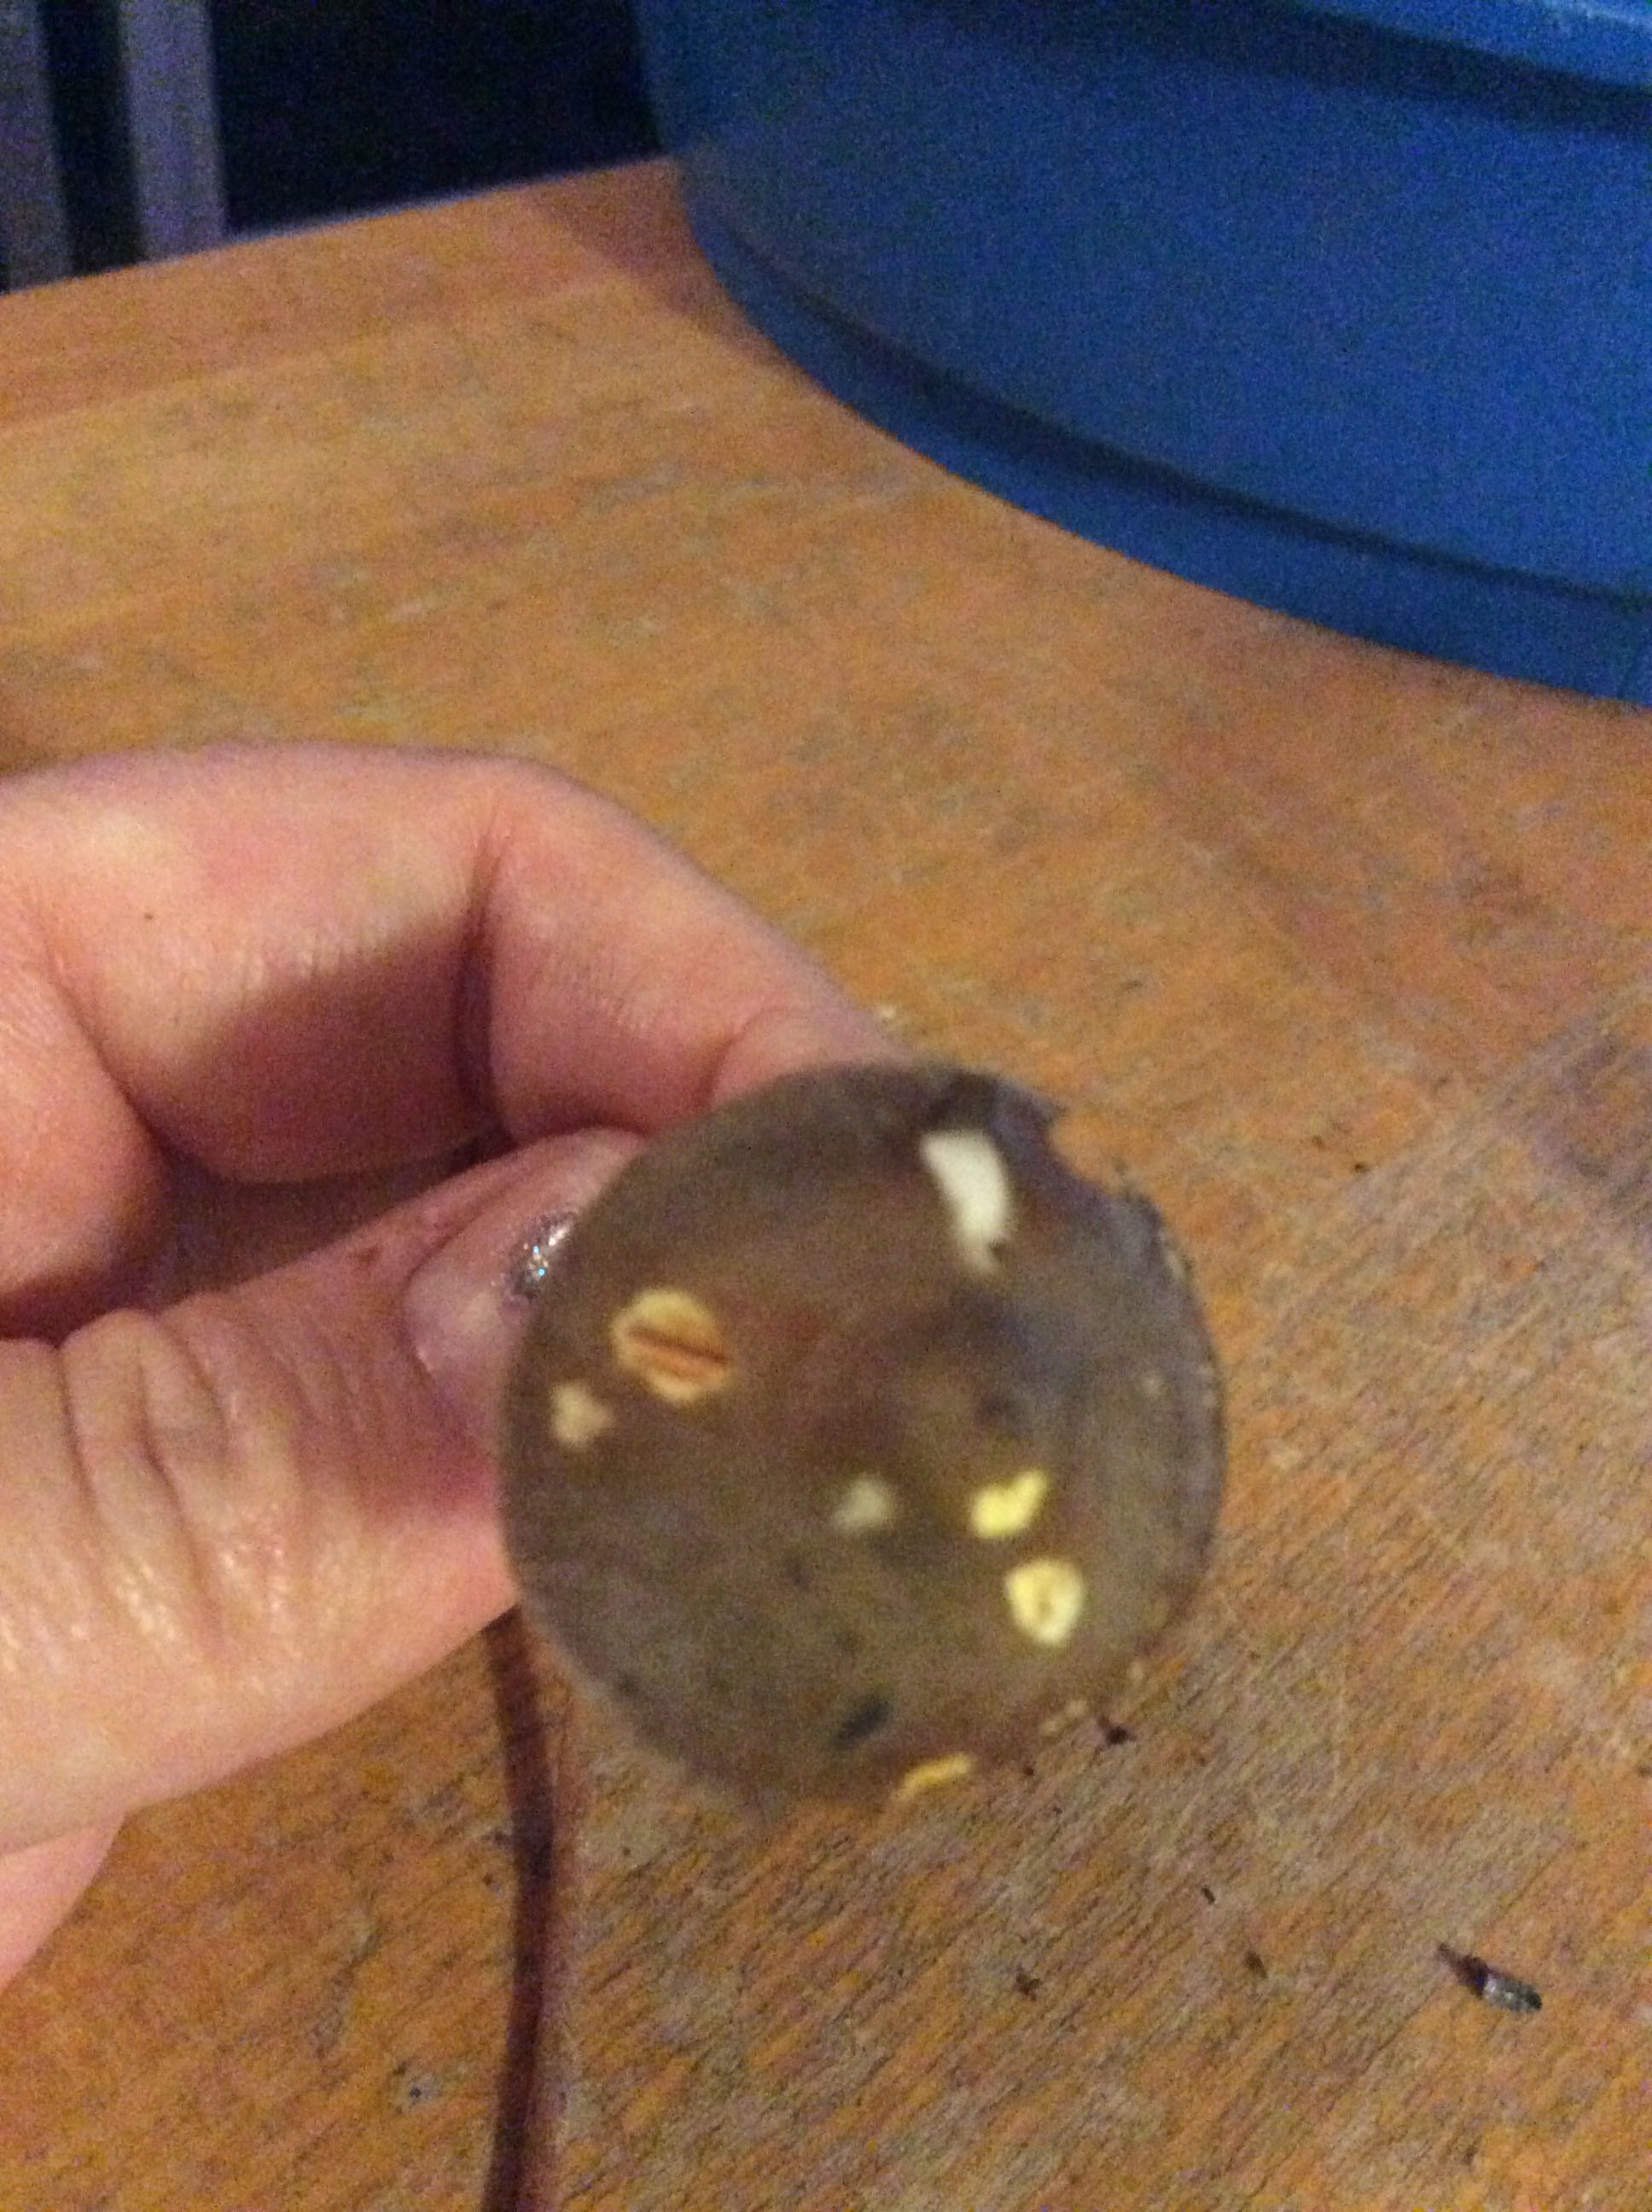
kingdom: Fungi
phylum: Basidiomycota
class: Agaricomycetes
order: Agaricales
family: Mycenaceae
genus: Mycena
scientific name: Mycena crocata
